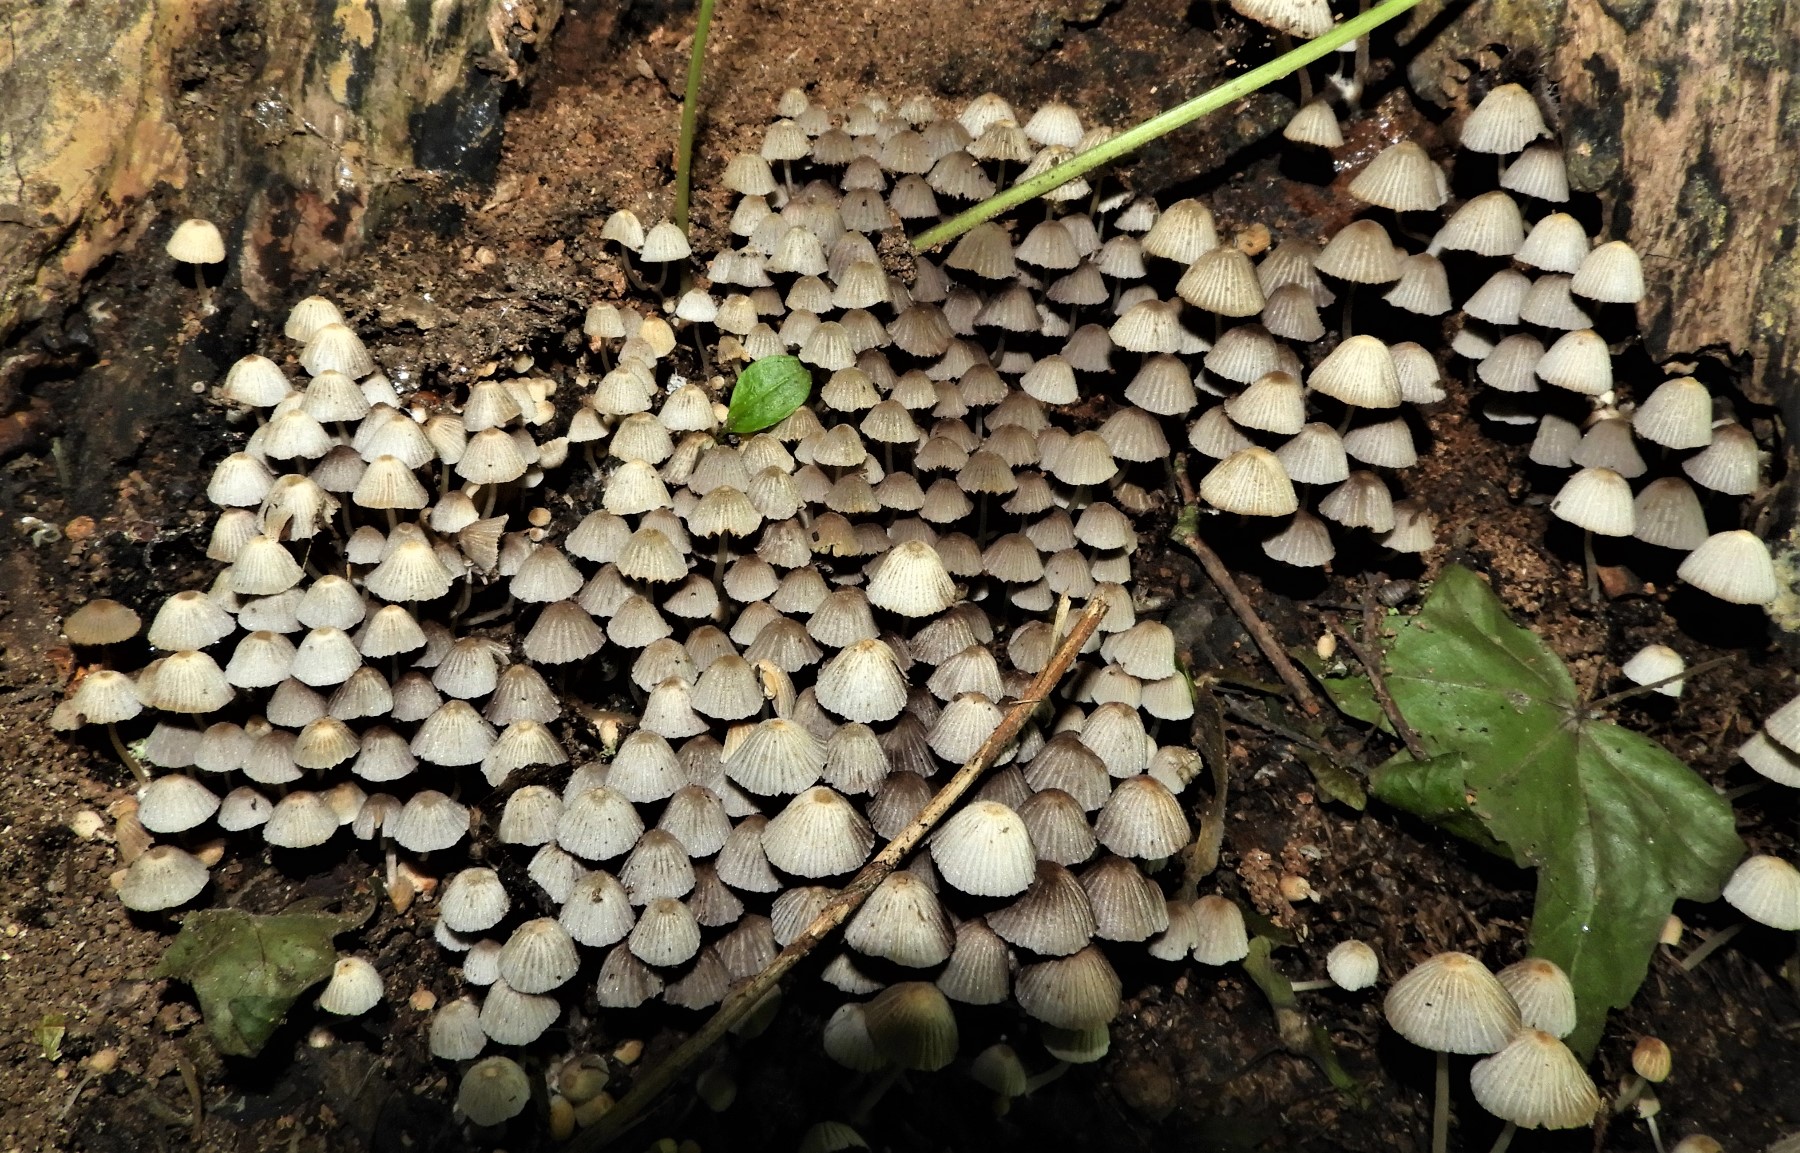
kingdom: Fungi
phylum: Basidiomycota
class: Agaricomycetes
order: Agaricales
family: Psathyrellaceae
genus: Coprinellus
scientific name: Coprinellus disseminatus
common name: bredsået blækhat
